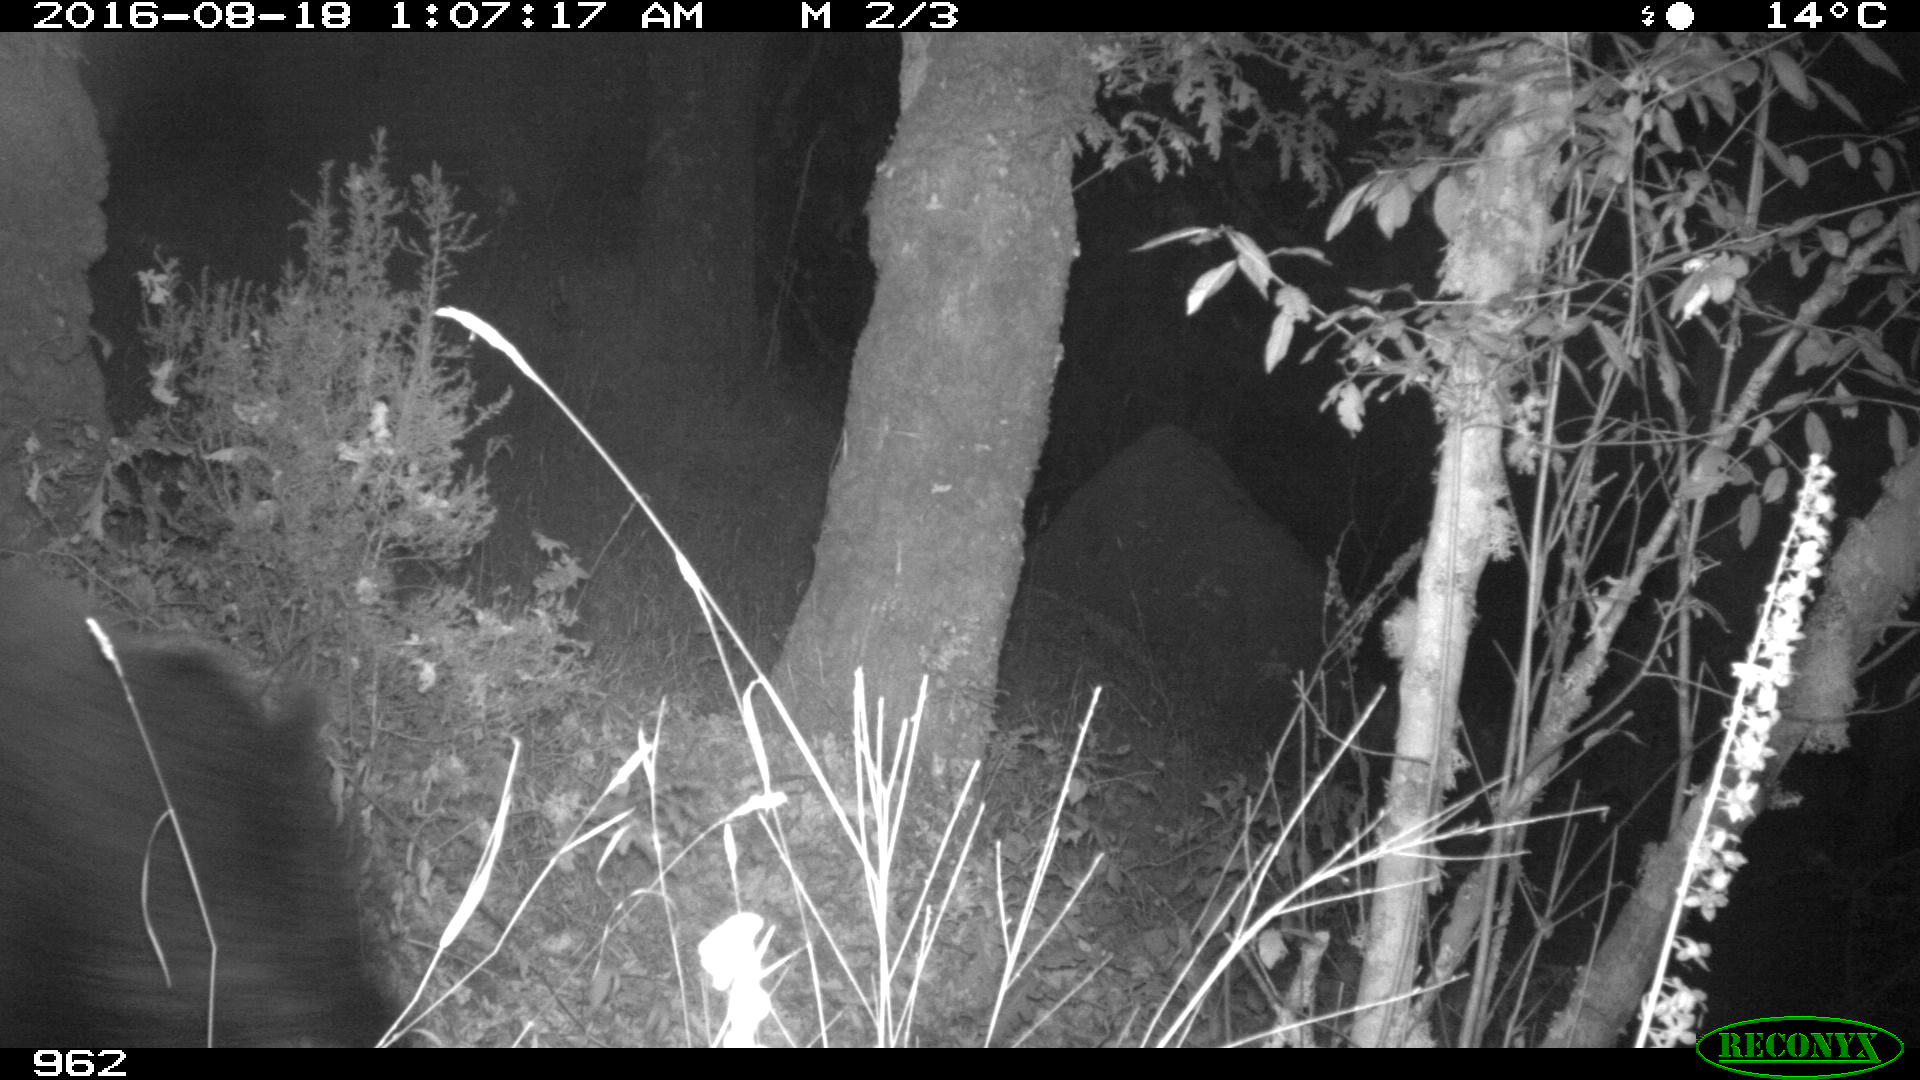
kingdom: Animalia
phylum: Chordata
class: Mammalia
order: Artiodactyla
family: Suidae
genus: Sus
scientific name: Sus scrofa
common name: Wild boar
